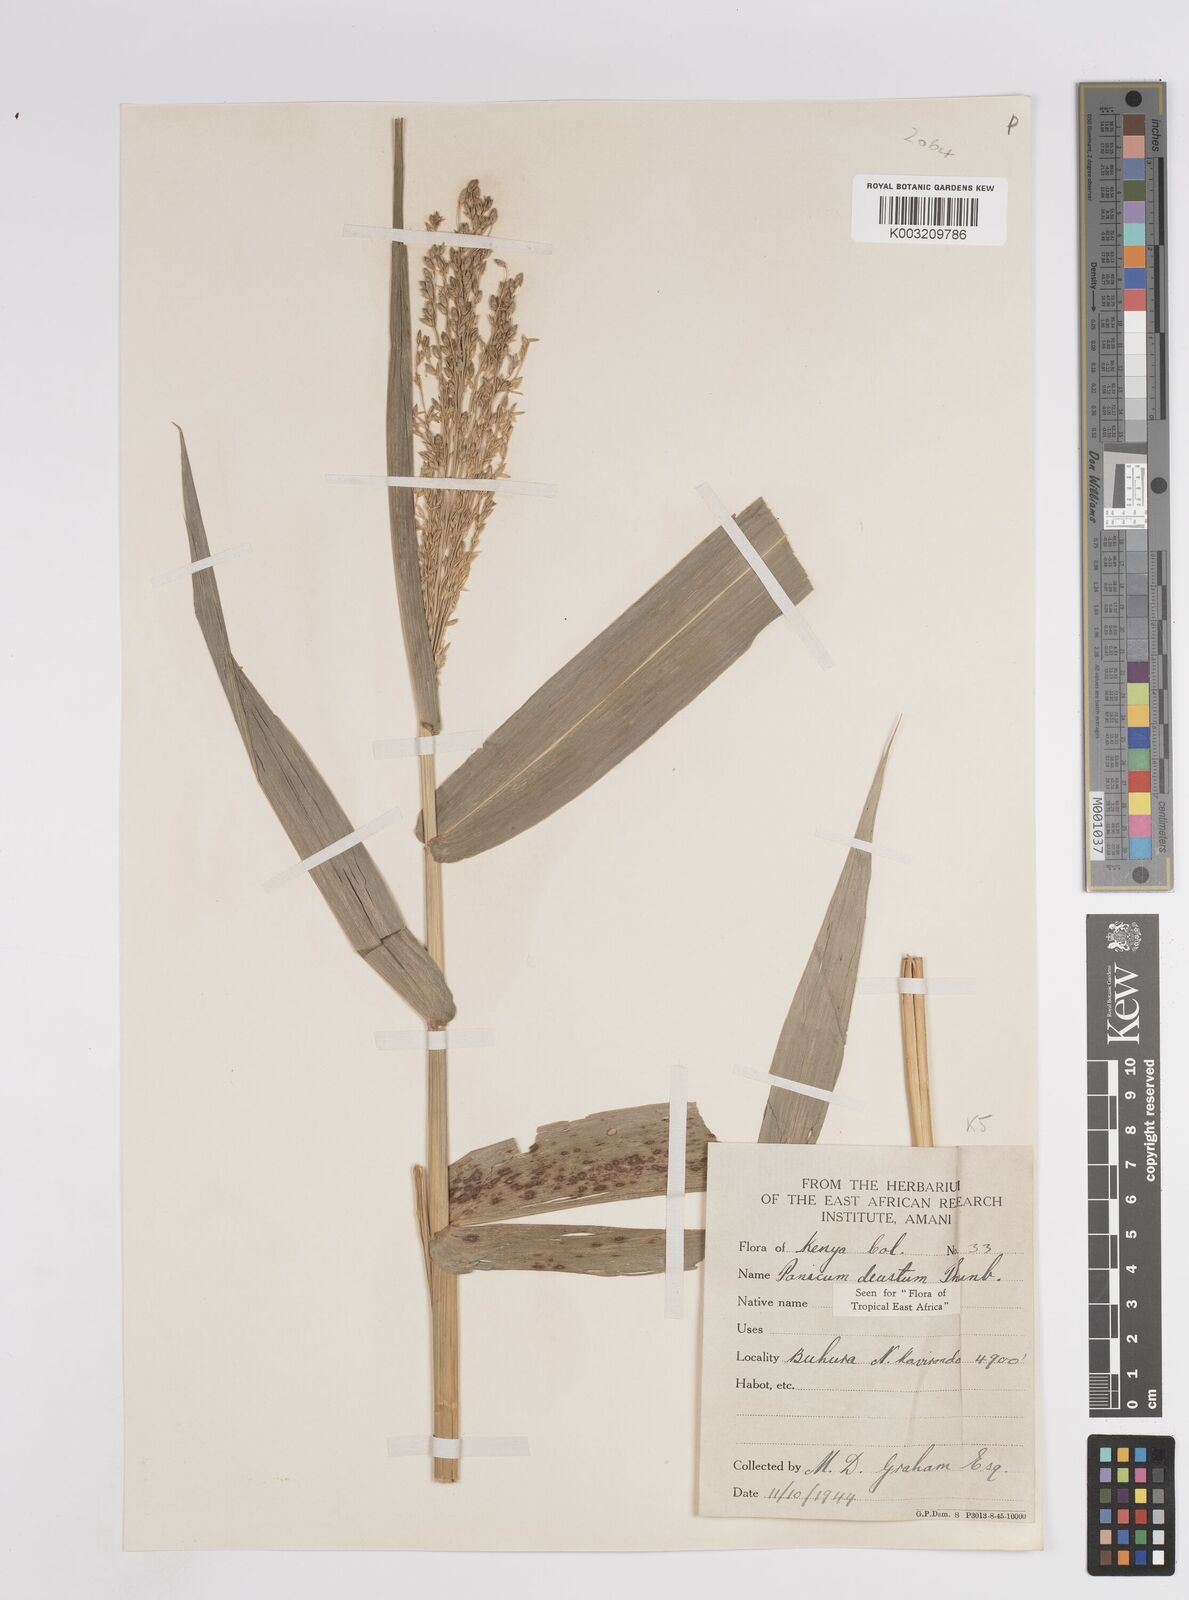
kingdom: Plantae
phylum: Tracheophyta
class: Liliopsida
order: Poales
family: Poaceae
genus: Panicum
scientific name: Panicum deustum
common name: Reed panicum
